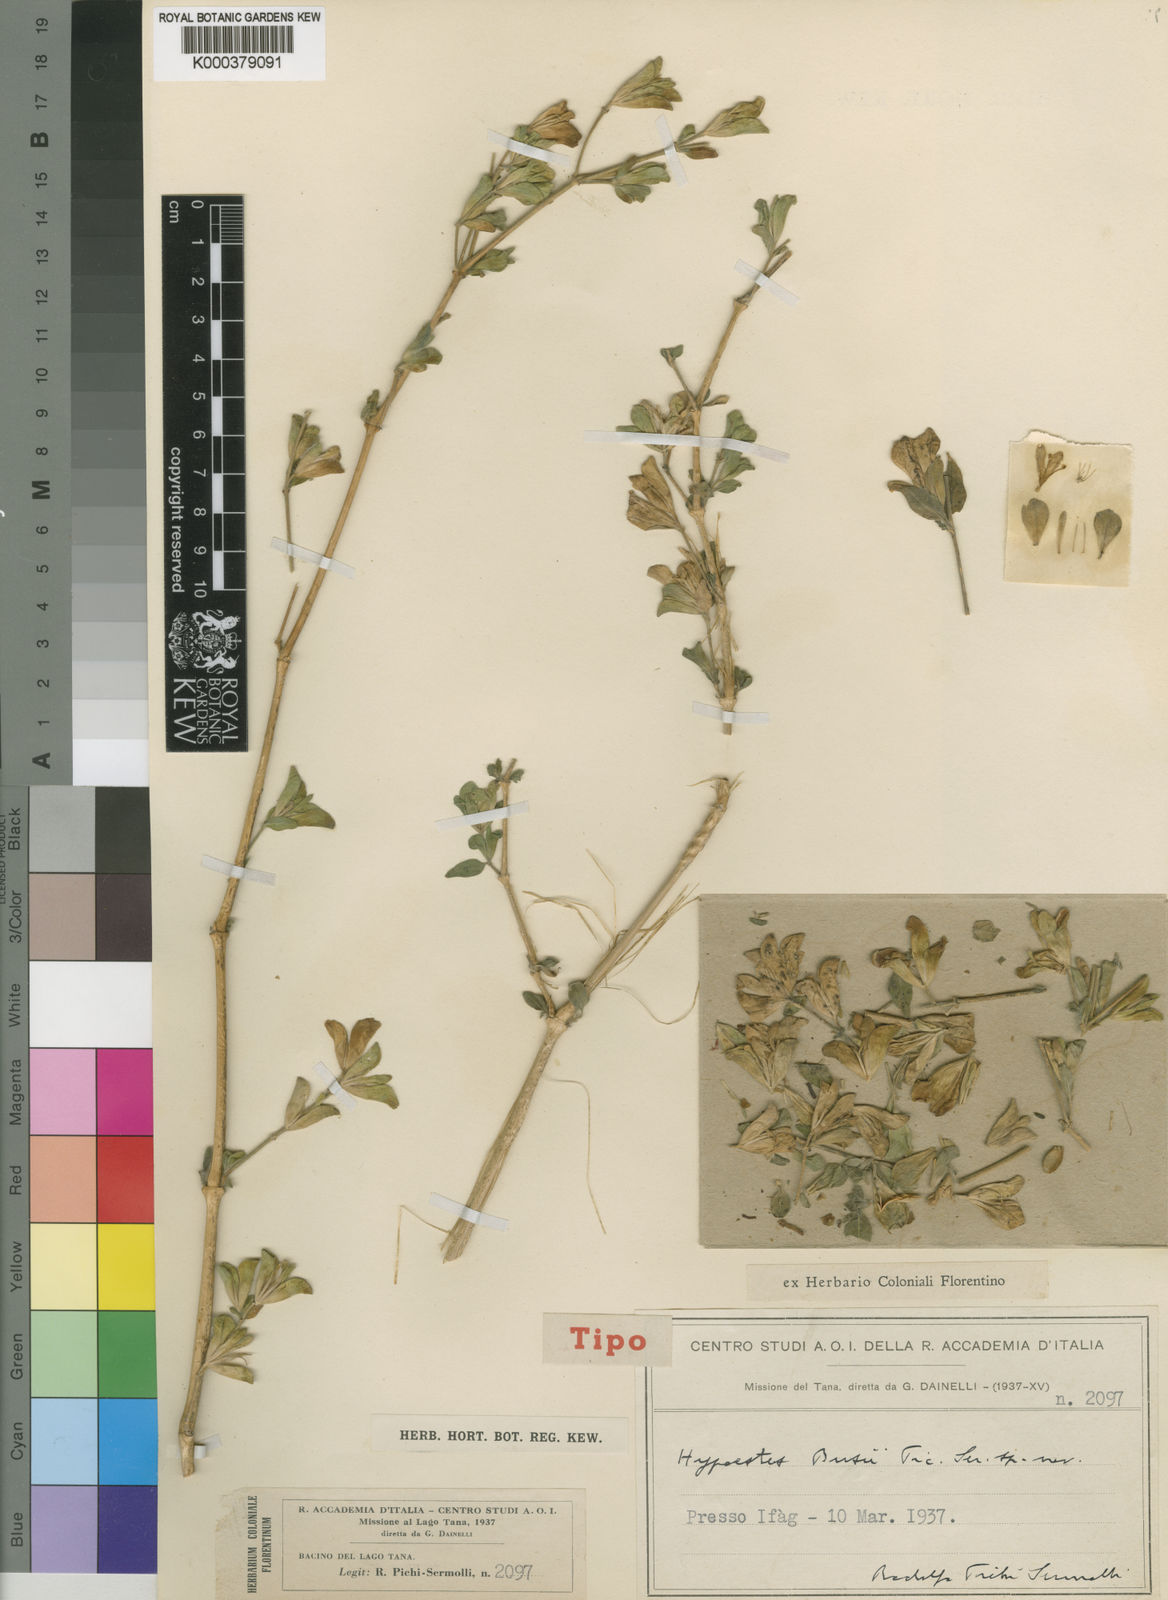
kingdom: Plantae
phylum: Tracheophyta
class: Magnoliopsida
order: Lamiales
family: Acanthaceae
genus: Hypoestes
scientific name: Hypoestes triflora
